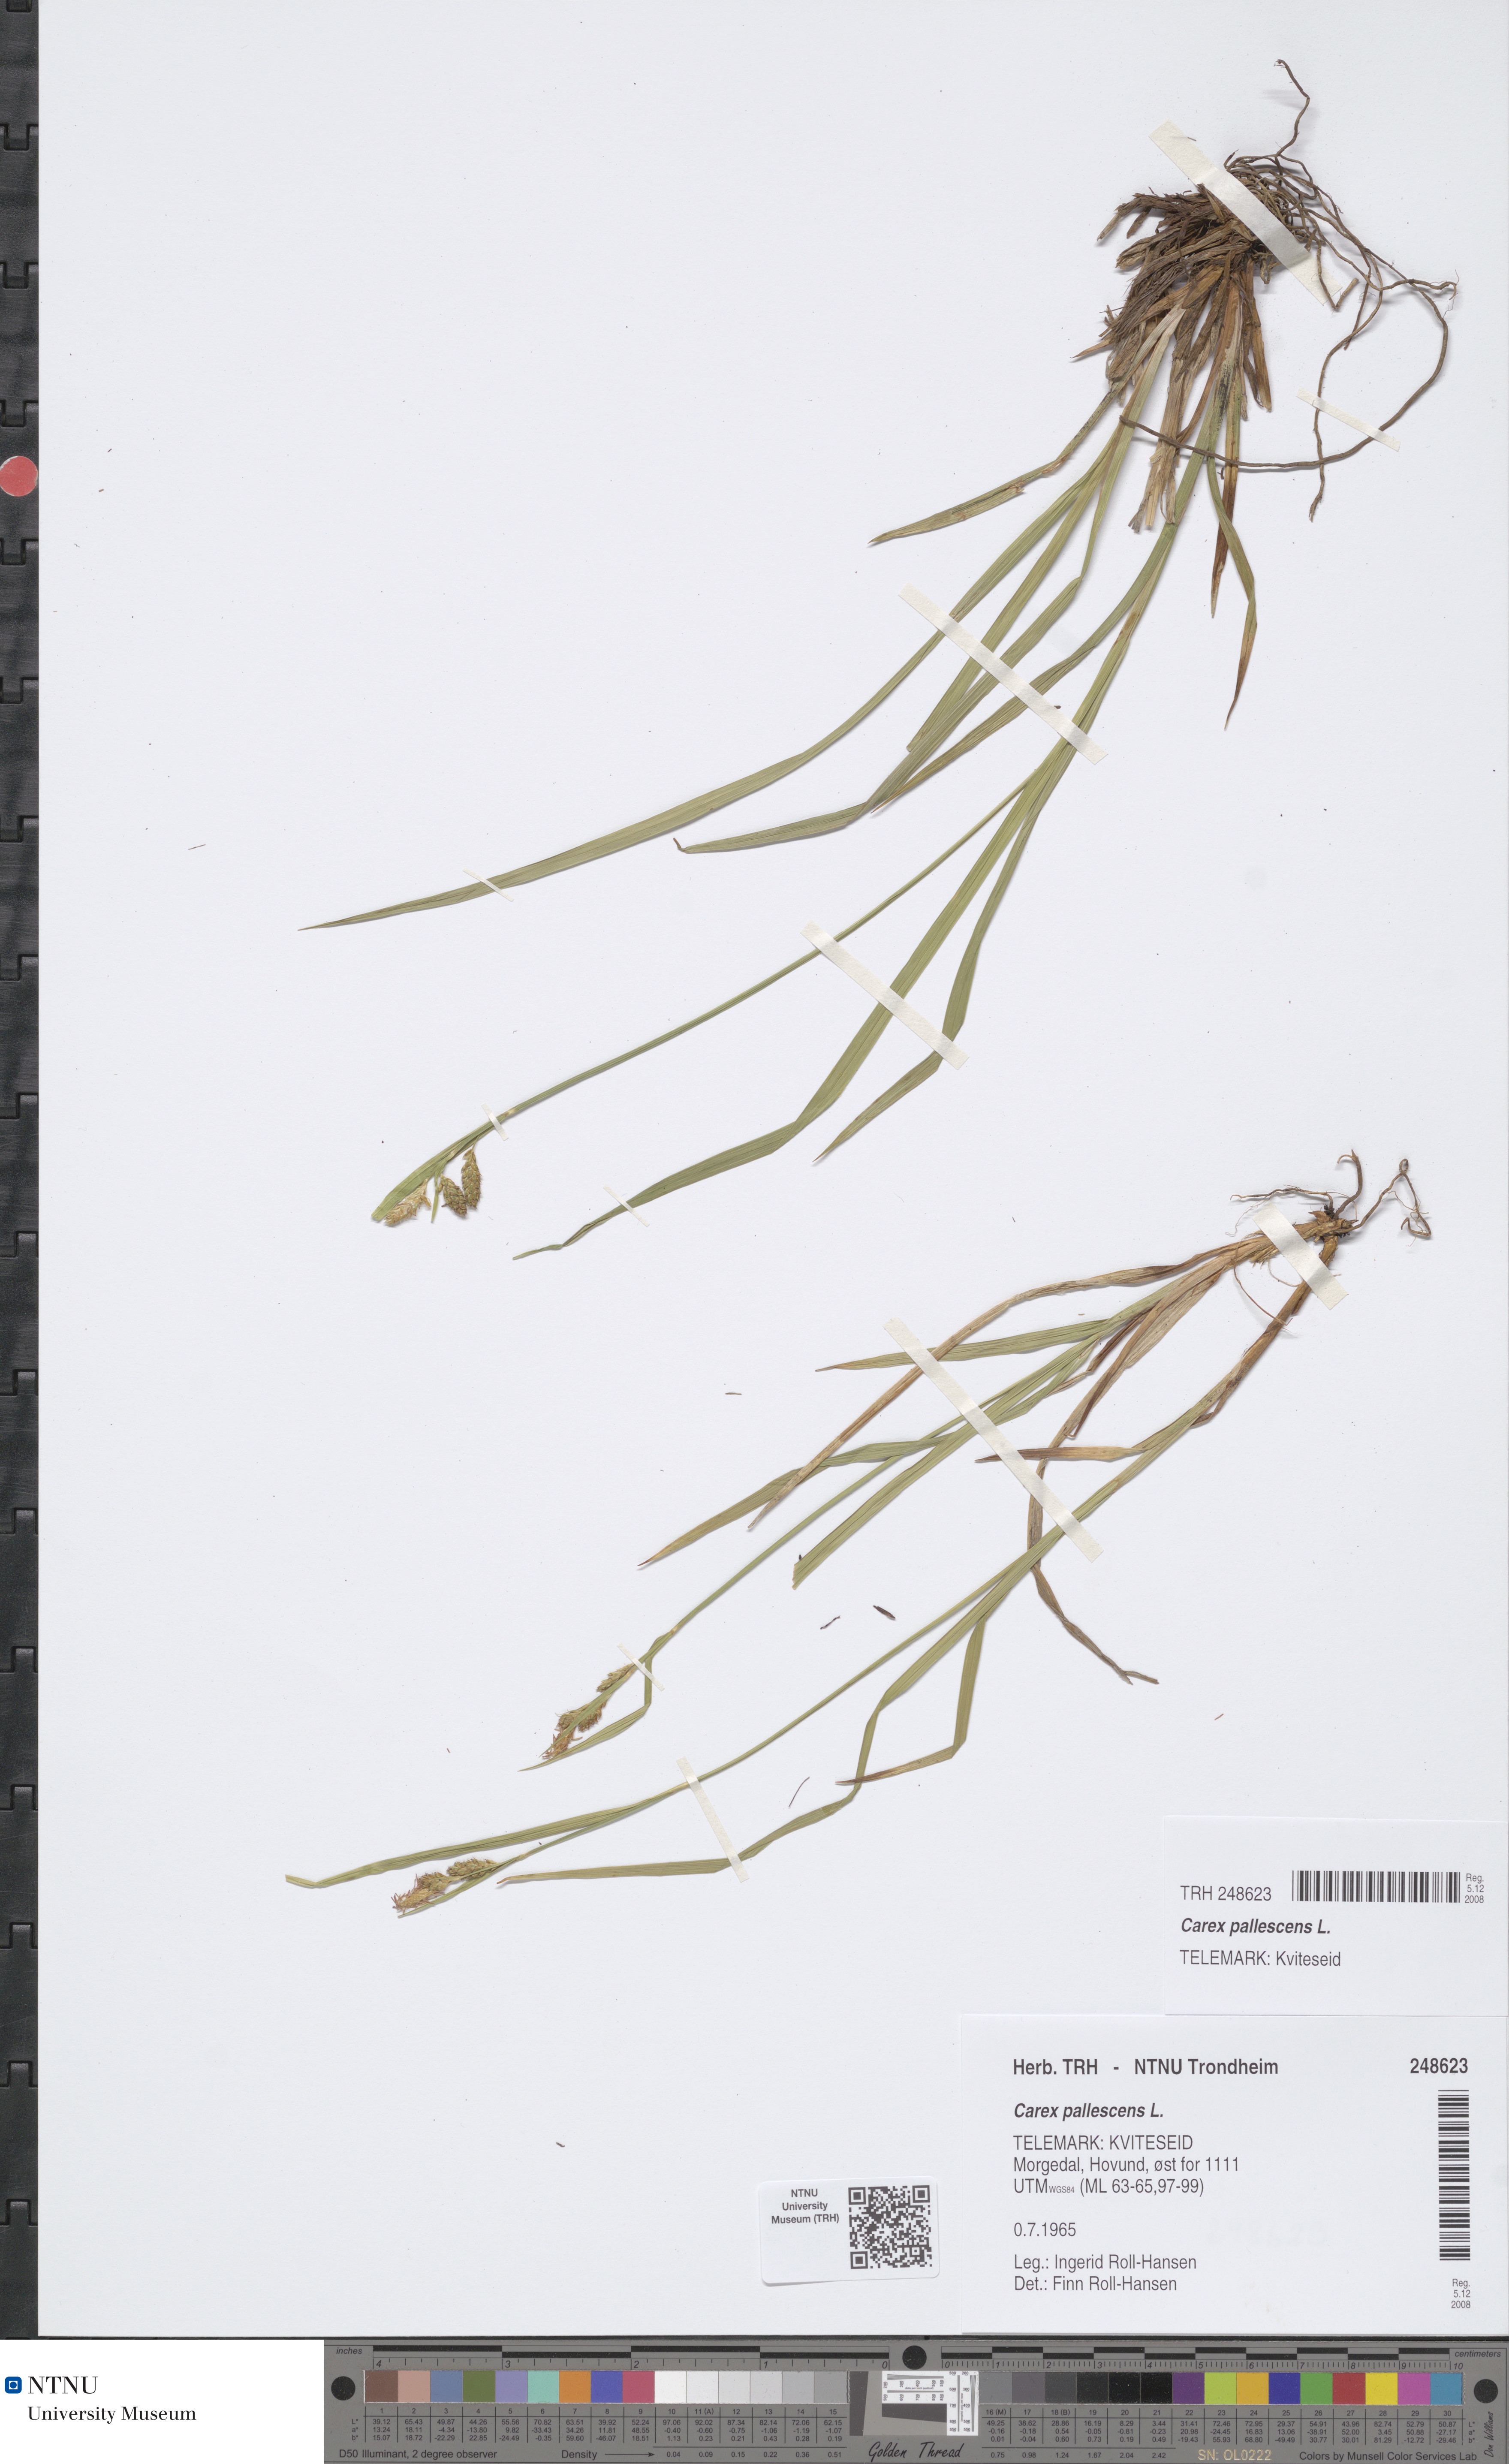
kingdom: Plantae
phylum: Tracheophyta
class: Liliopsida
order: Poales
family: Cyperaceae
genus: Carex
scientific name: Carex pallescens
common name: Pale sedge
